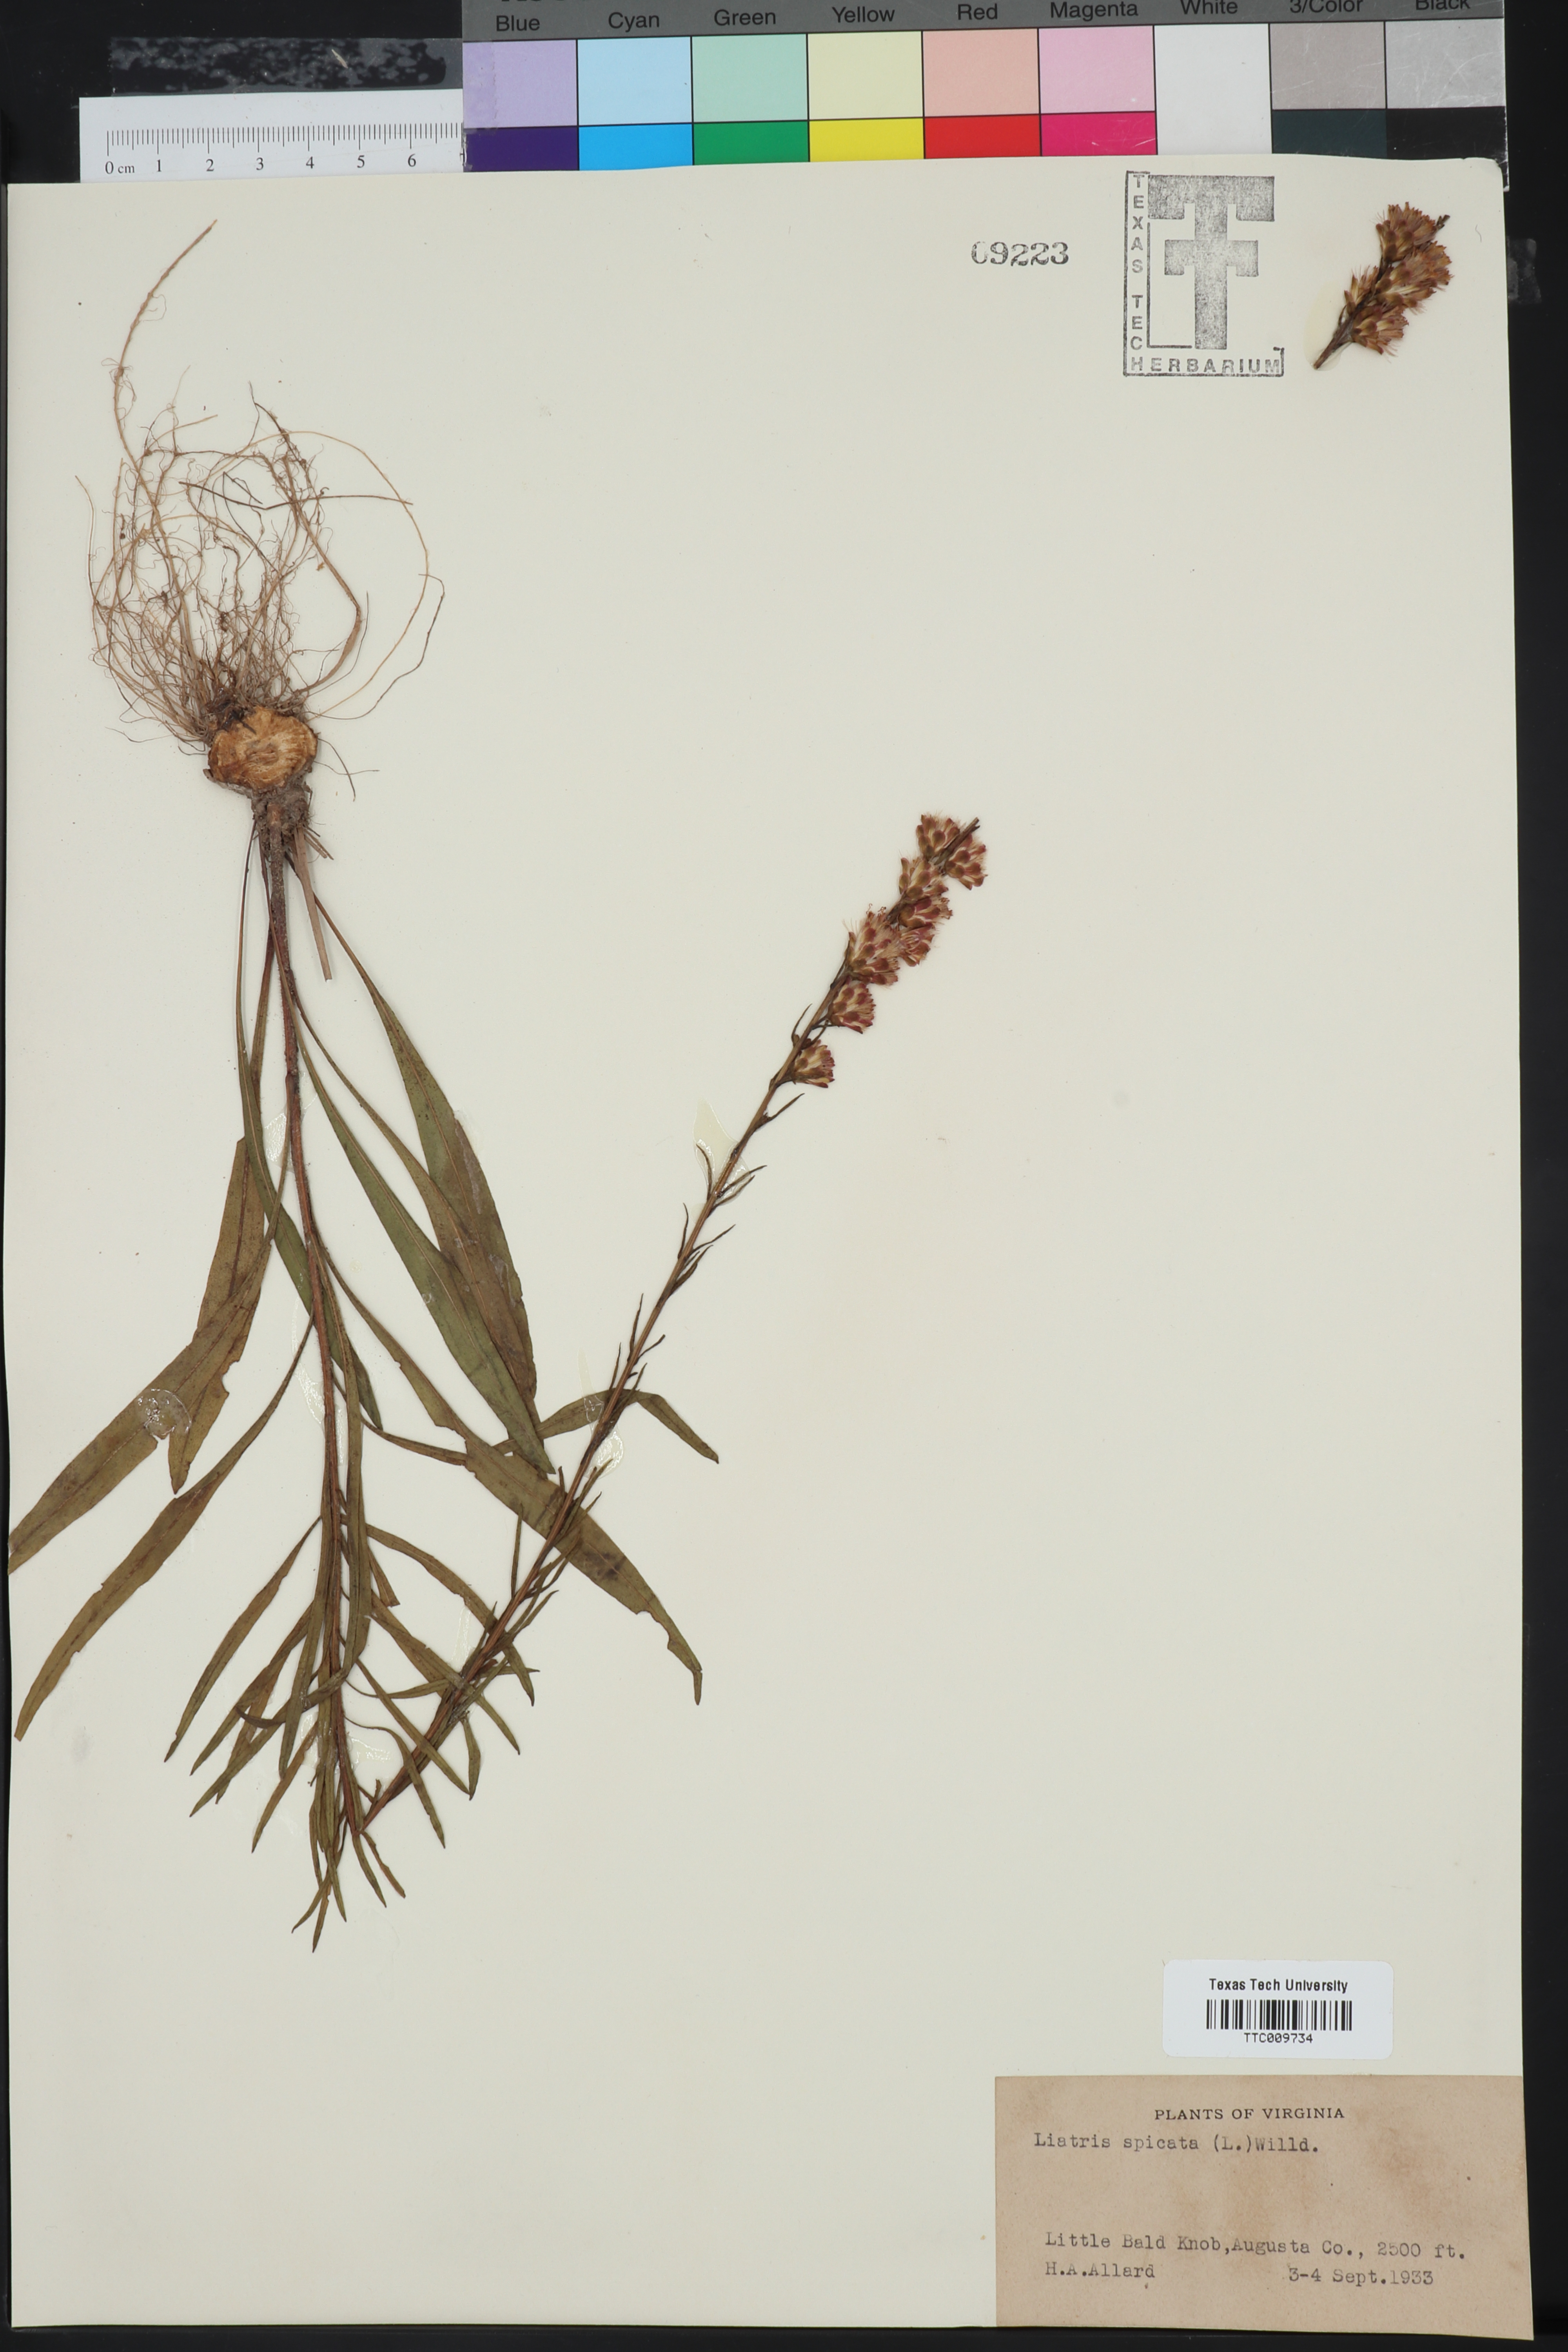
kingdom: Plantae
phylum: Tracheophyta
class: Magnoliopsida
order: Asterales
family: Asteraceae
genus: Liatris
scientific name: Liatris spicata
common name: Florist gayfeather
